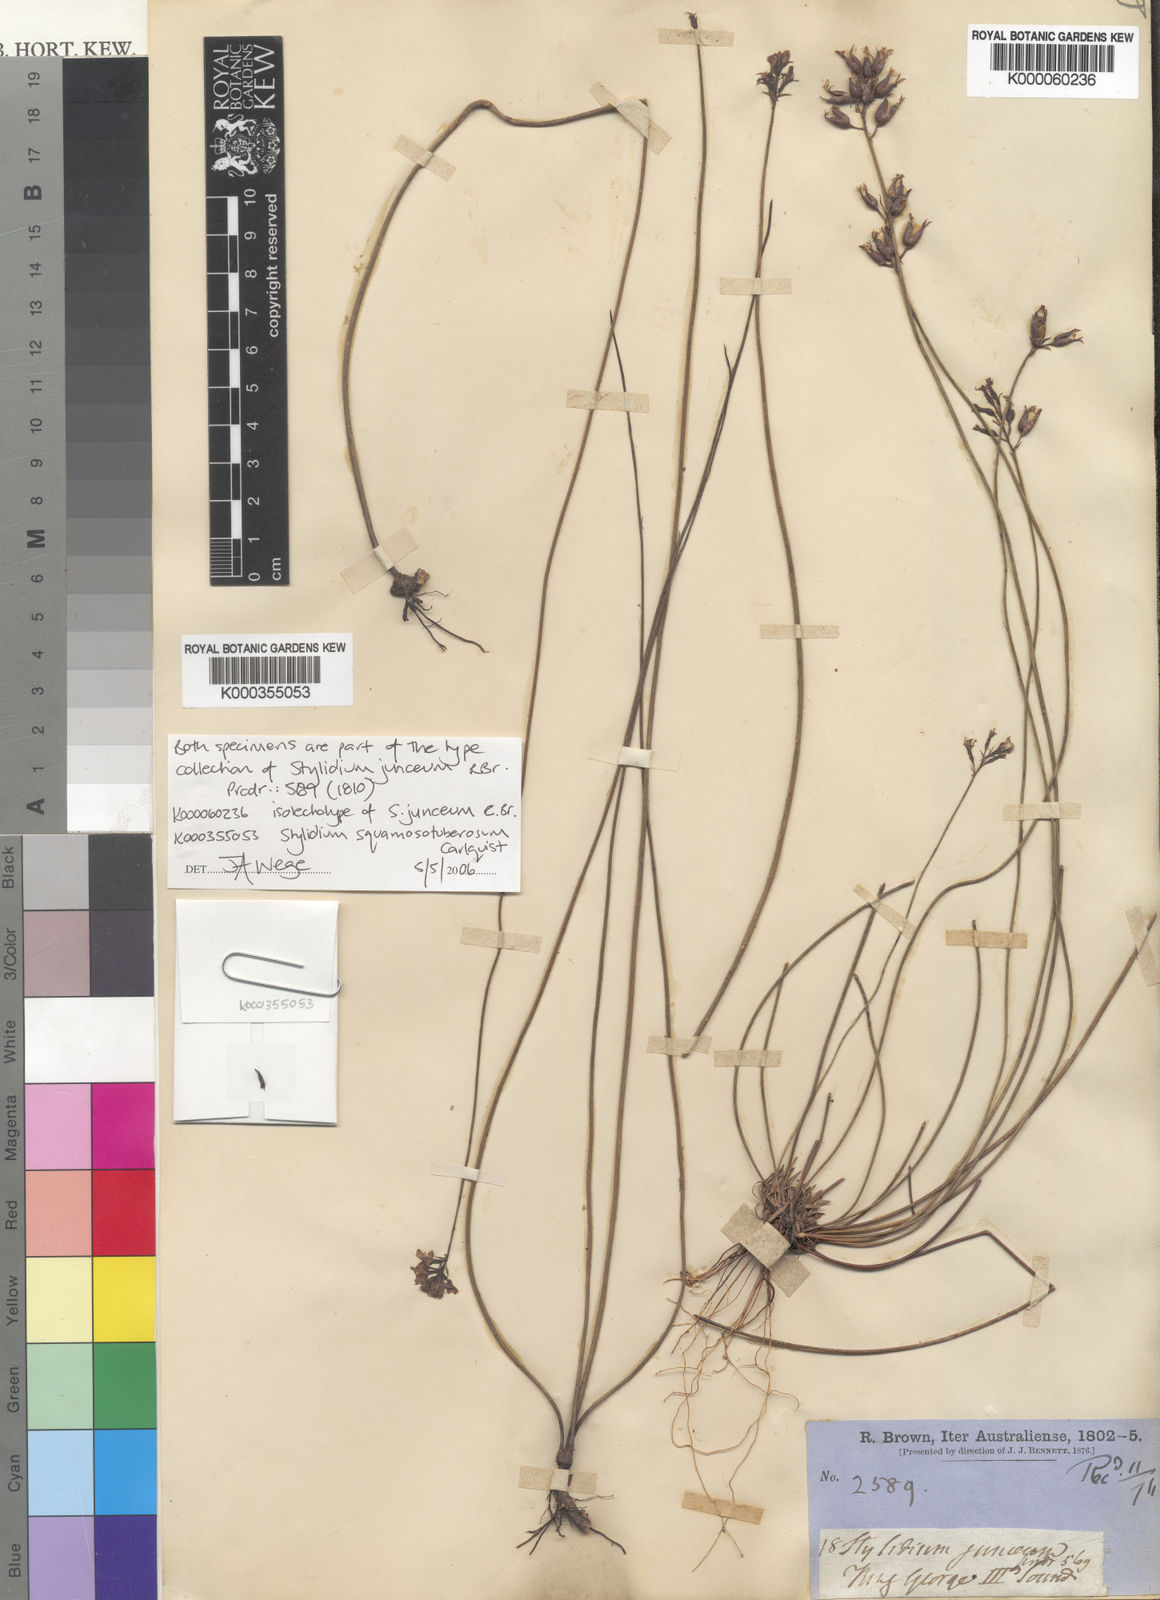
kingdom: Plantae
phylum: Tracheophyta
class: Magnoliopsida
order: Asterales
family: Stylidiaceae
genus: Stylidium
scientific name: Stylidium junceum
